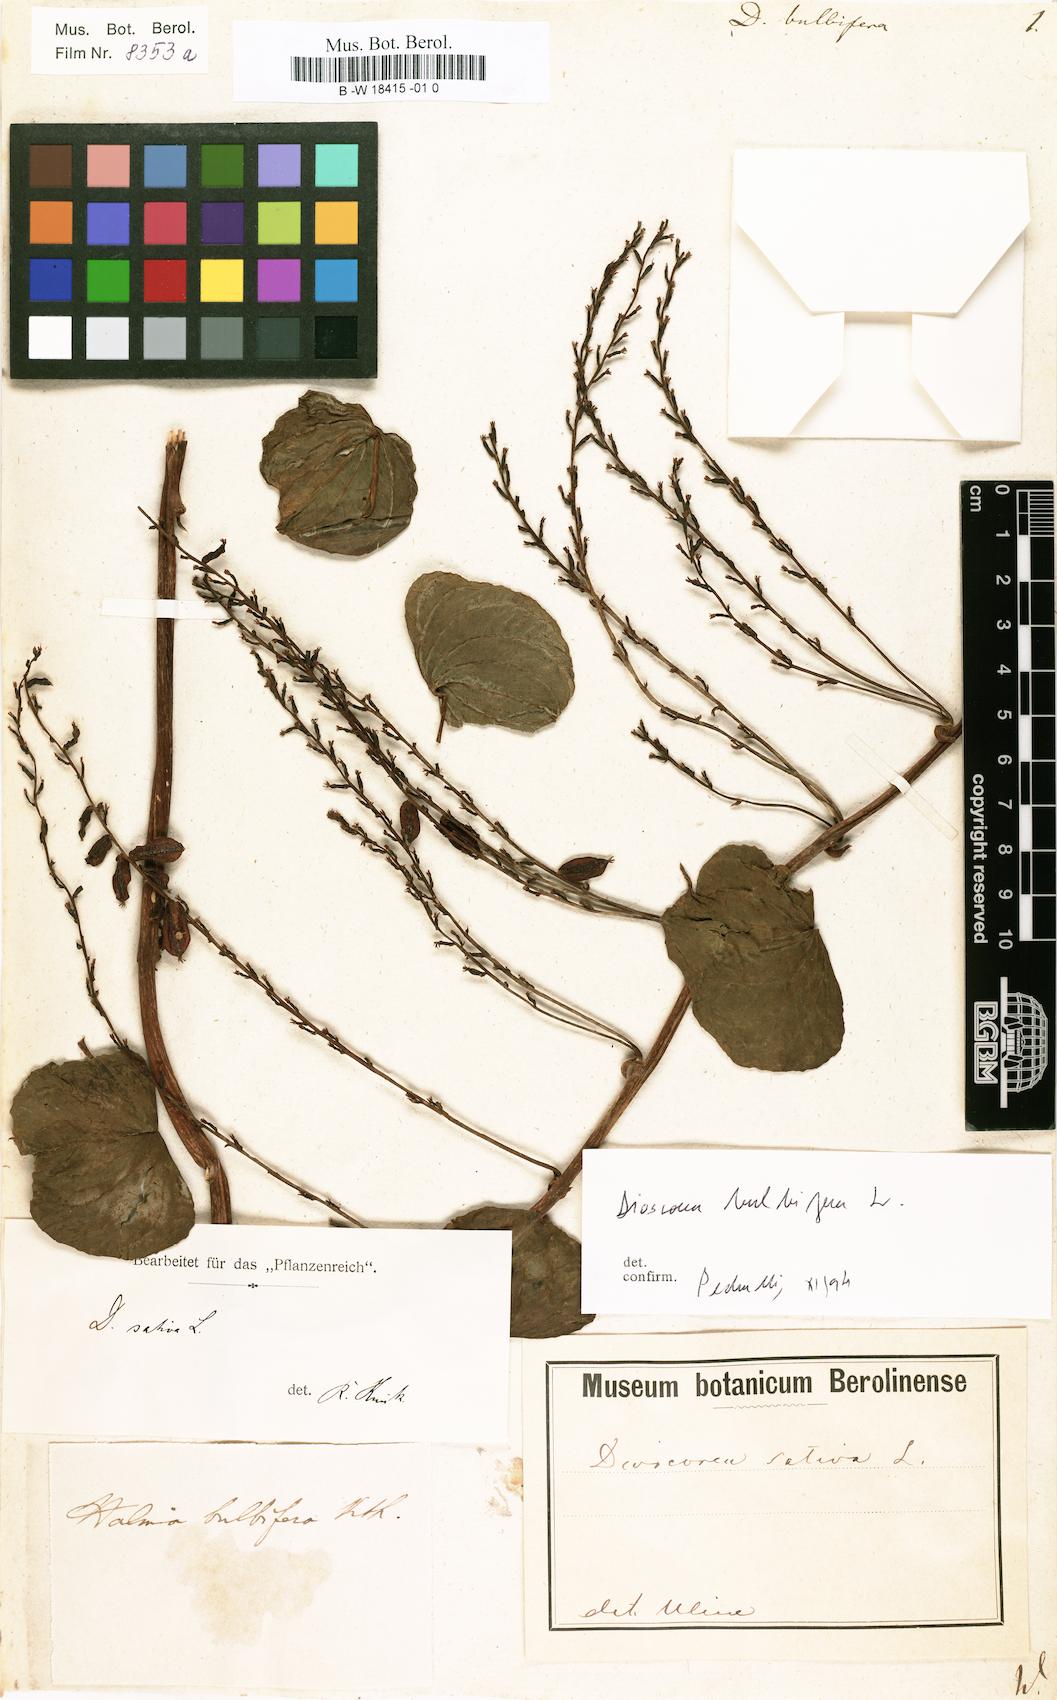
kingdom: Plantae
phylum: Tracheophyta
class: Liliopsida
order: Dioscoreales
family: Dioscoreaceae
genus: Dioscorea
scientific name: Dioscorea bulbifera
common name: Air yam
